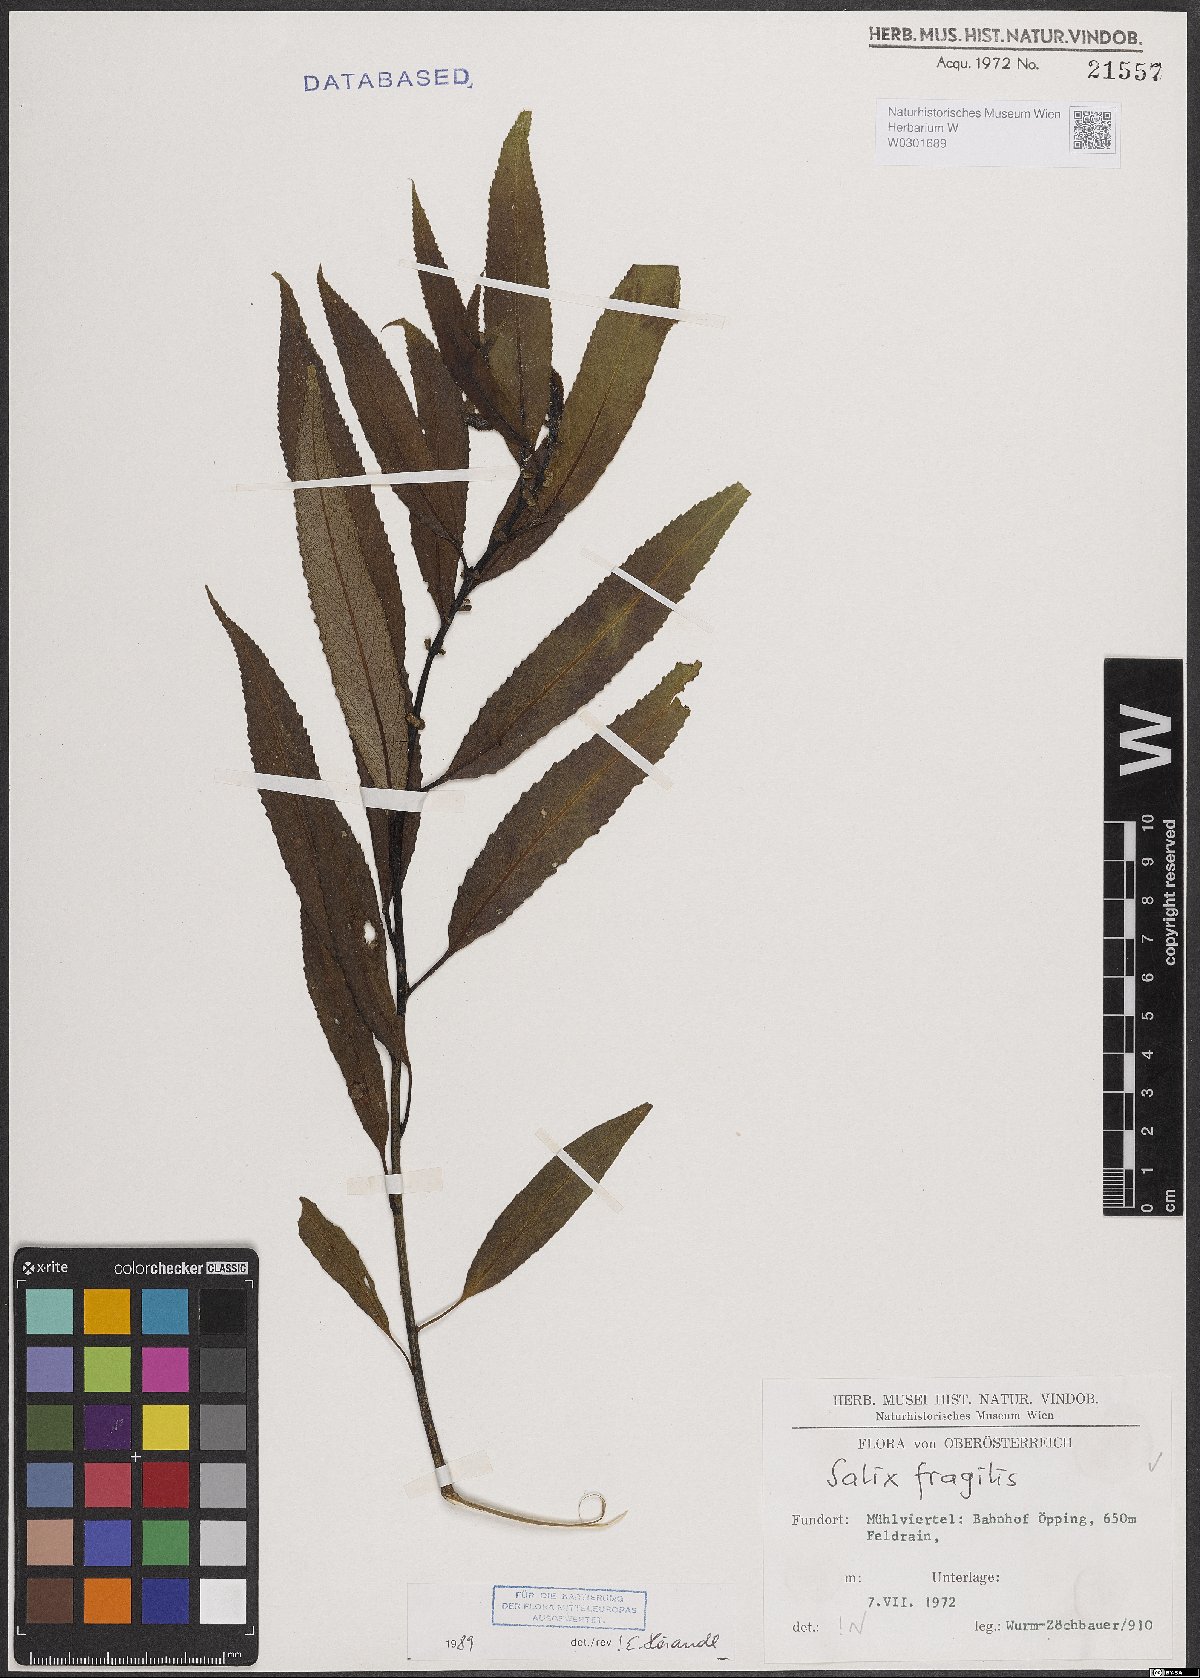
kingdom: Plantae
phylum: Tracheophyta
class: Magnoliopsida
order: Malpighiales
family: Salicaceae
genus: Salix
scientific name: Salix fragilis
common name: Crack willow
